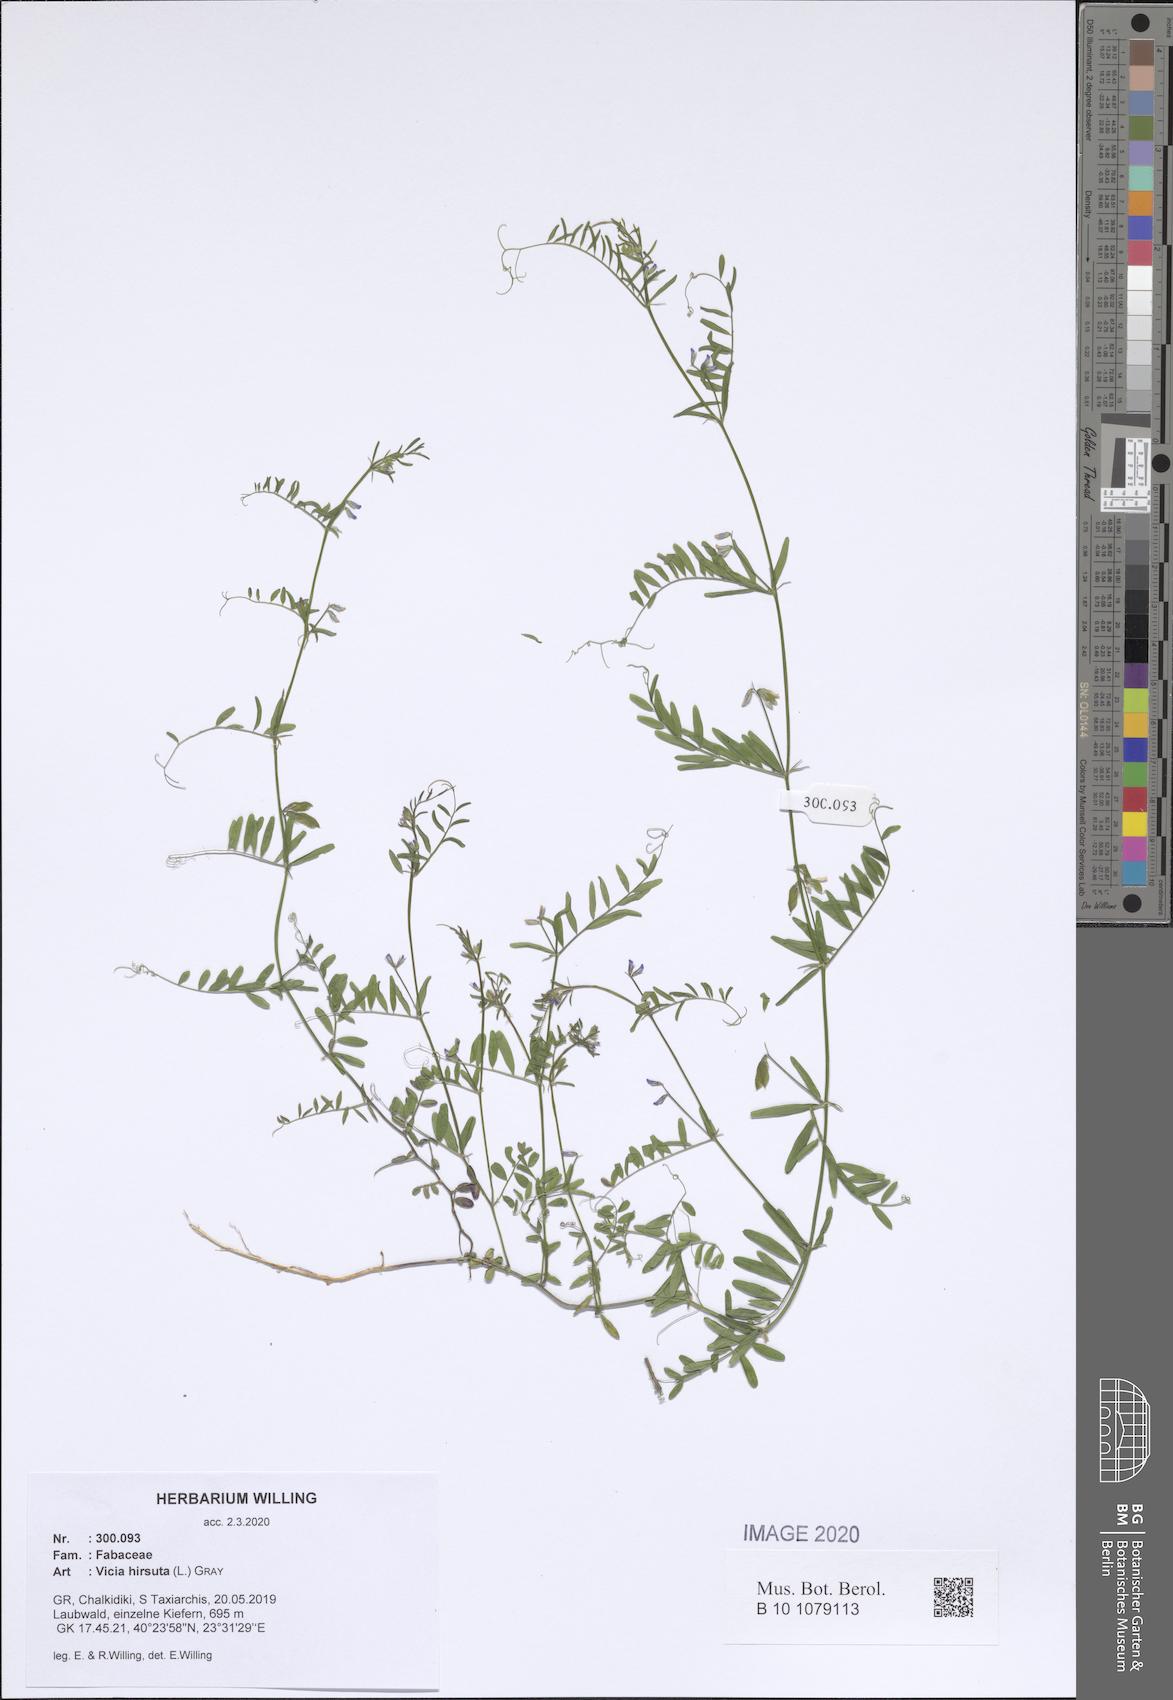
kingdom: Plantae
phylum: Tracheophyta
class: Magnoliopsida
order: Fabales
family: Fabaceae
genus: Vicia
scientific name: Vicia hirsuta
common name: Tiny vetch
